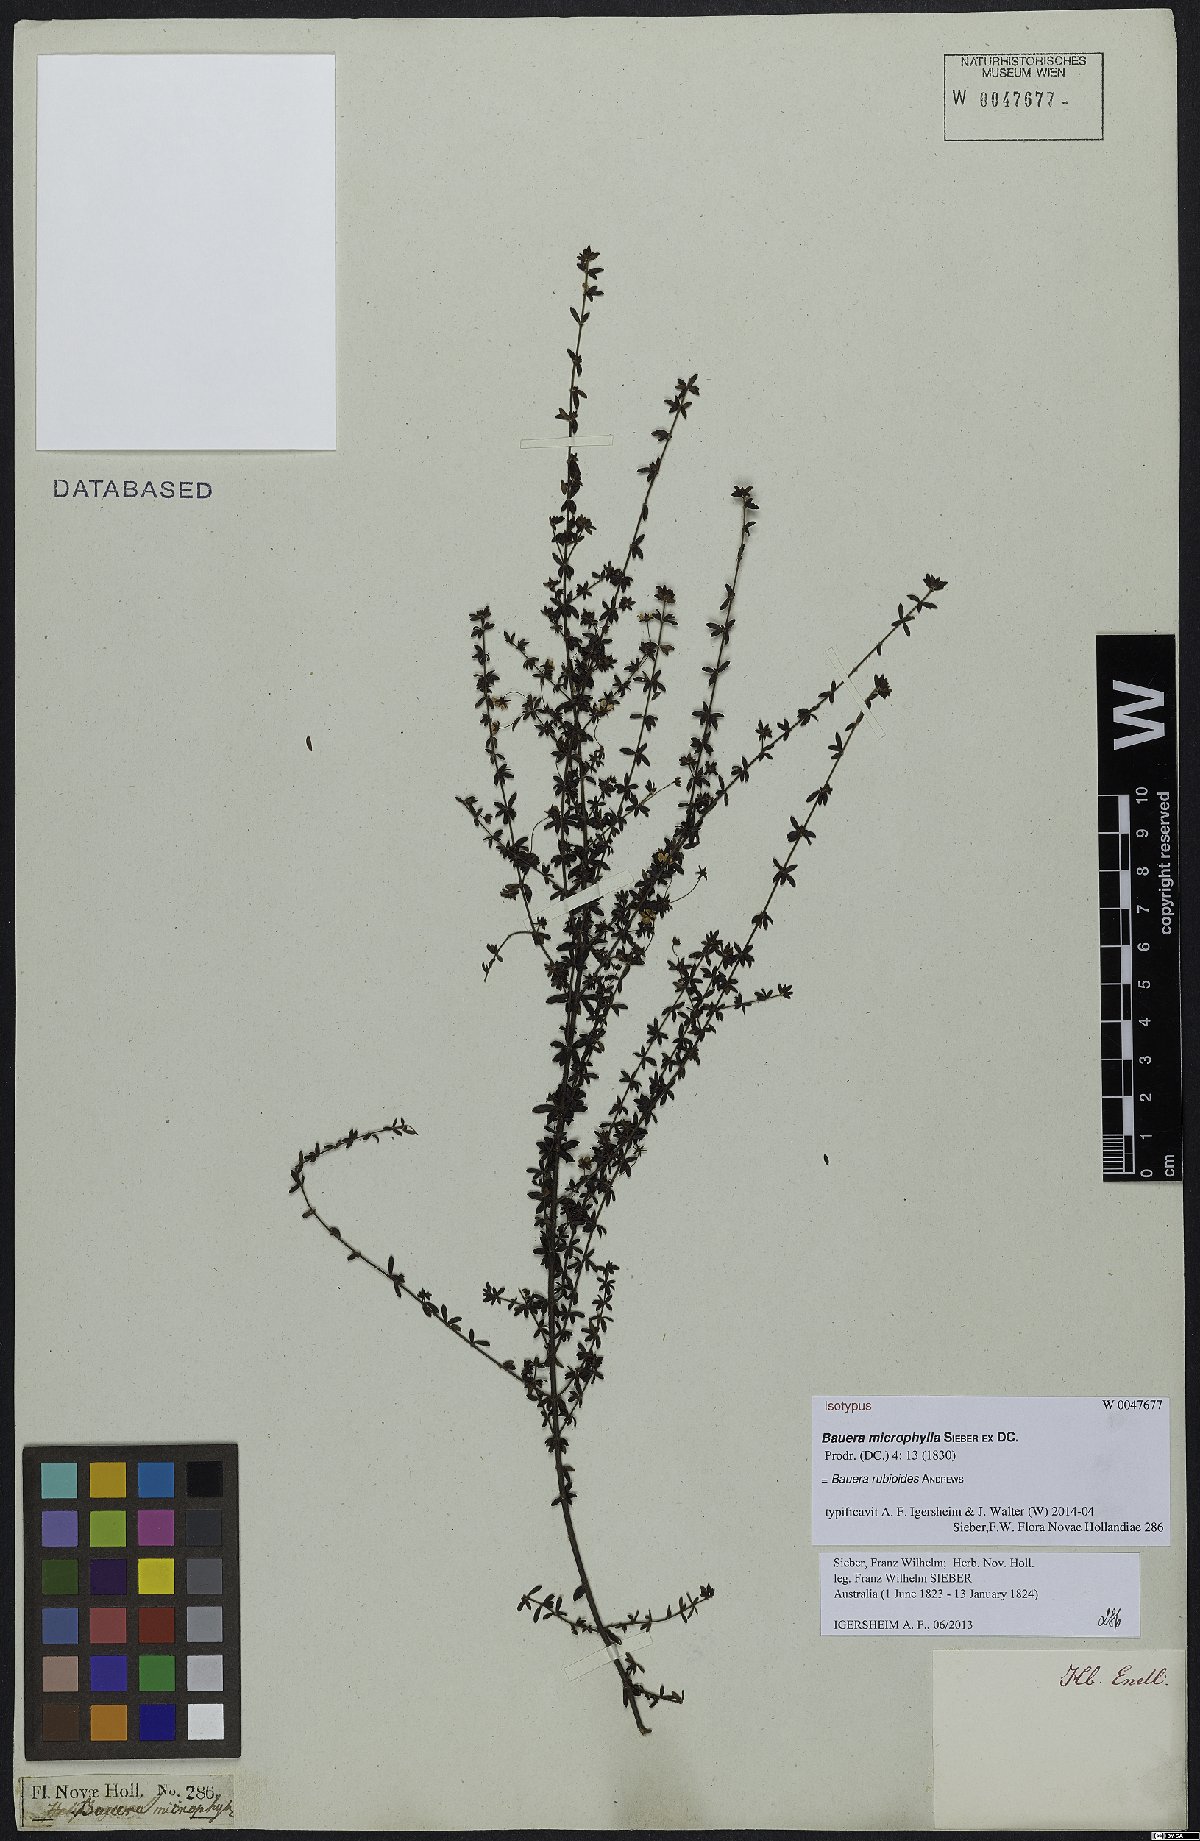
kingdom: Plantae
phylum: Tracheophyta
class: Magnoliopsida
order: Oxalidales
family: Cunoniaceae
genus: Bauera
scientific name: Bauera rubioides
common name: River-rose
